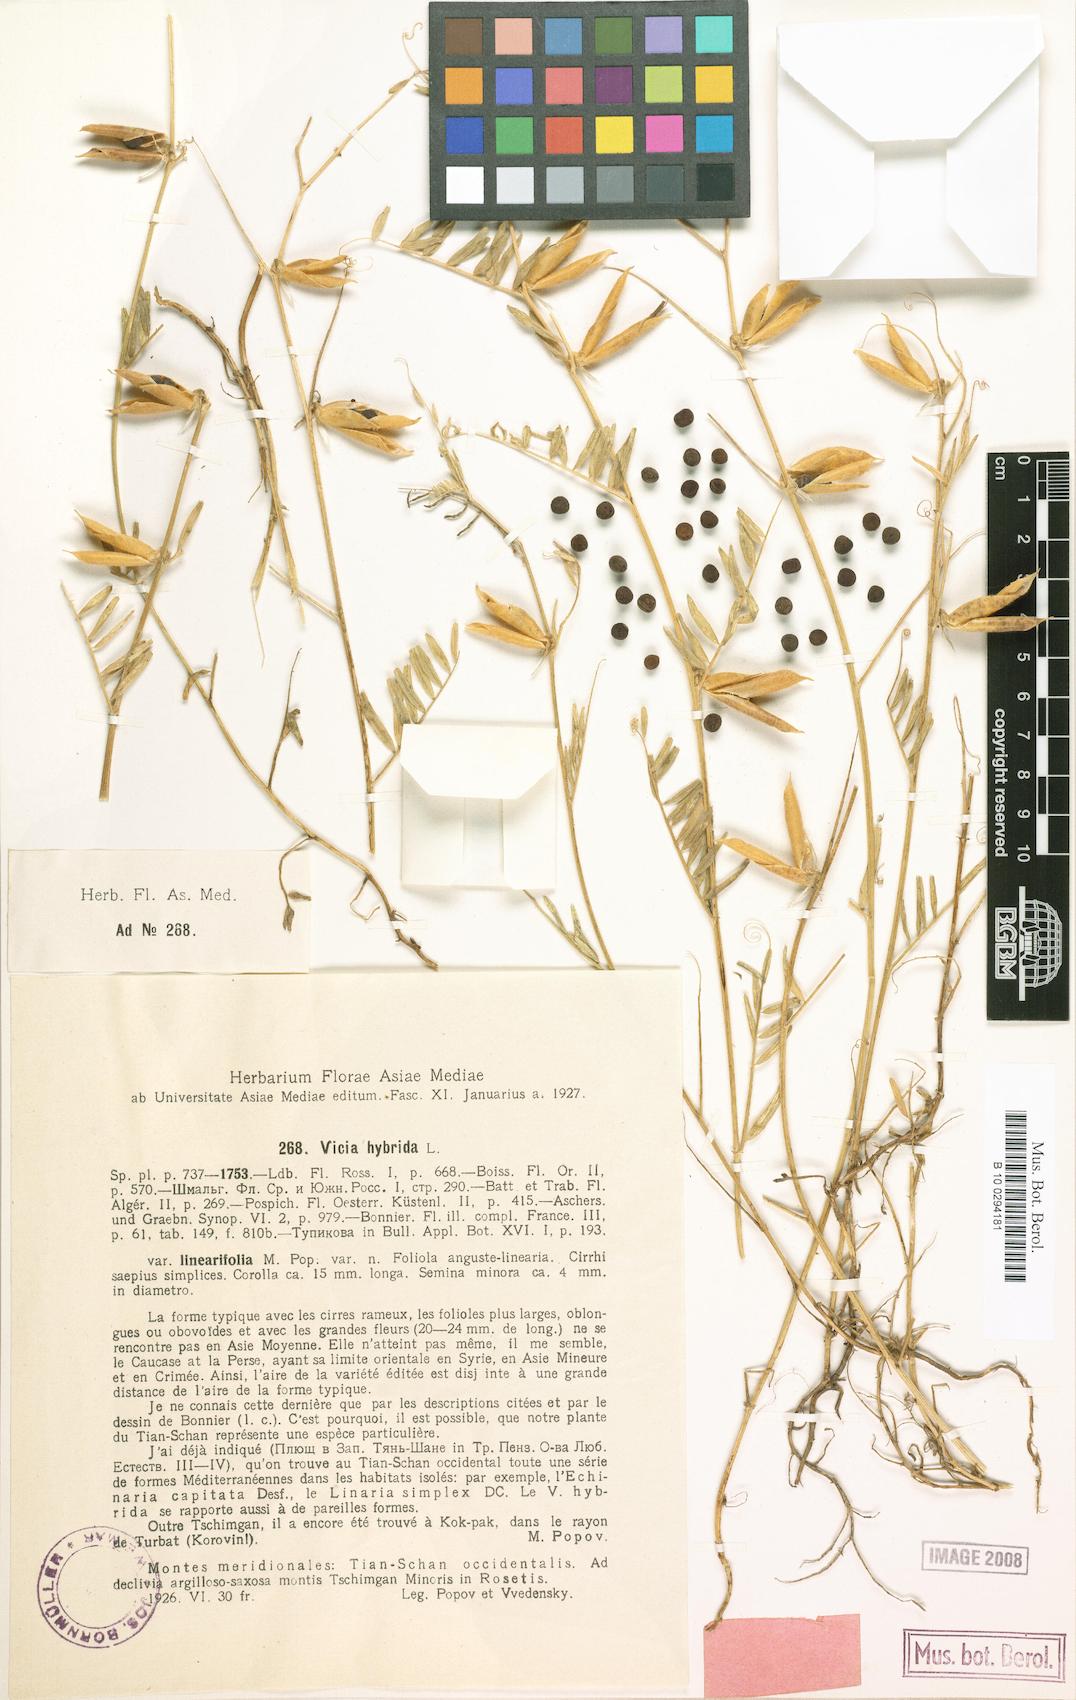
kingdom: Plantae
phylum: Tracheophyta
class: Magnoliopsida
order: Fabales
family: Fabaceae
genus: Vicia
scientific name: Vicia hybrida
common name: Hairy yellow vetch
